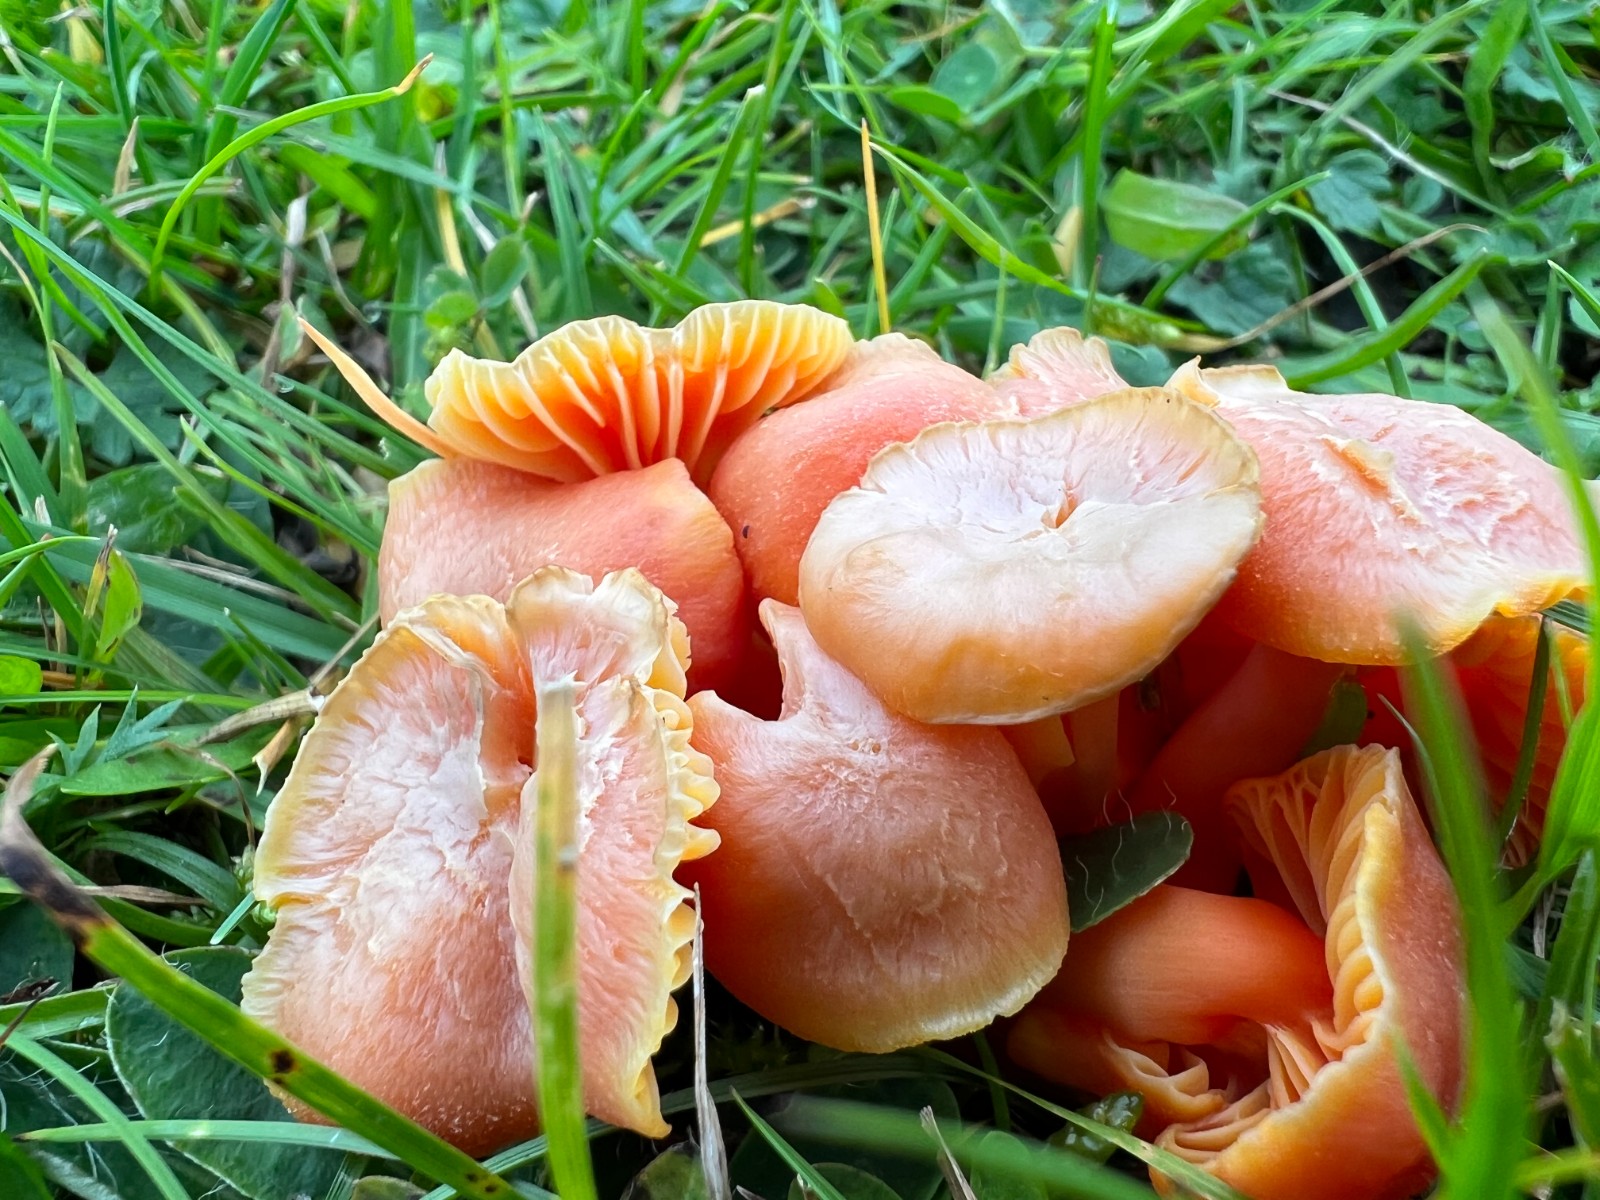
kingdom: Fungi
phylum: Basidiomycota
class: Agaricomycetes
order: Agaricales
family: Hygrophoraceae
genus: Hygrocybe
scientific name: Hygrocybe reidii
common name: honning-vokshat
